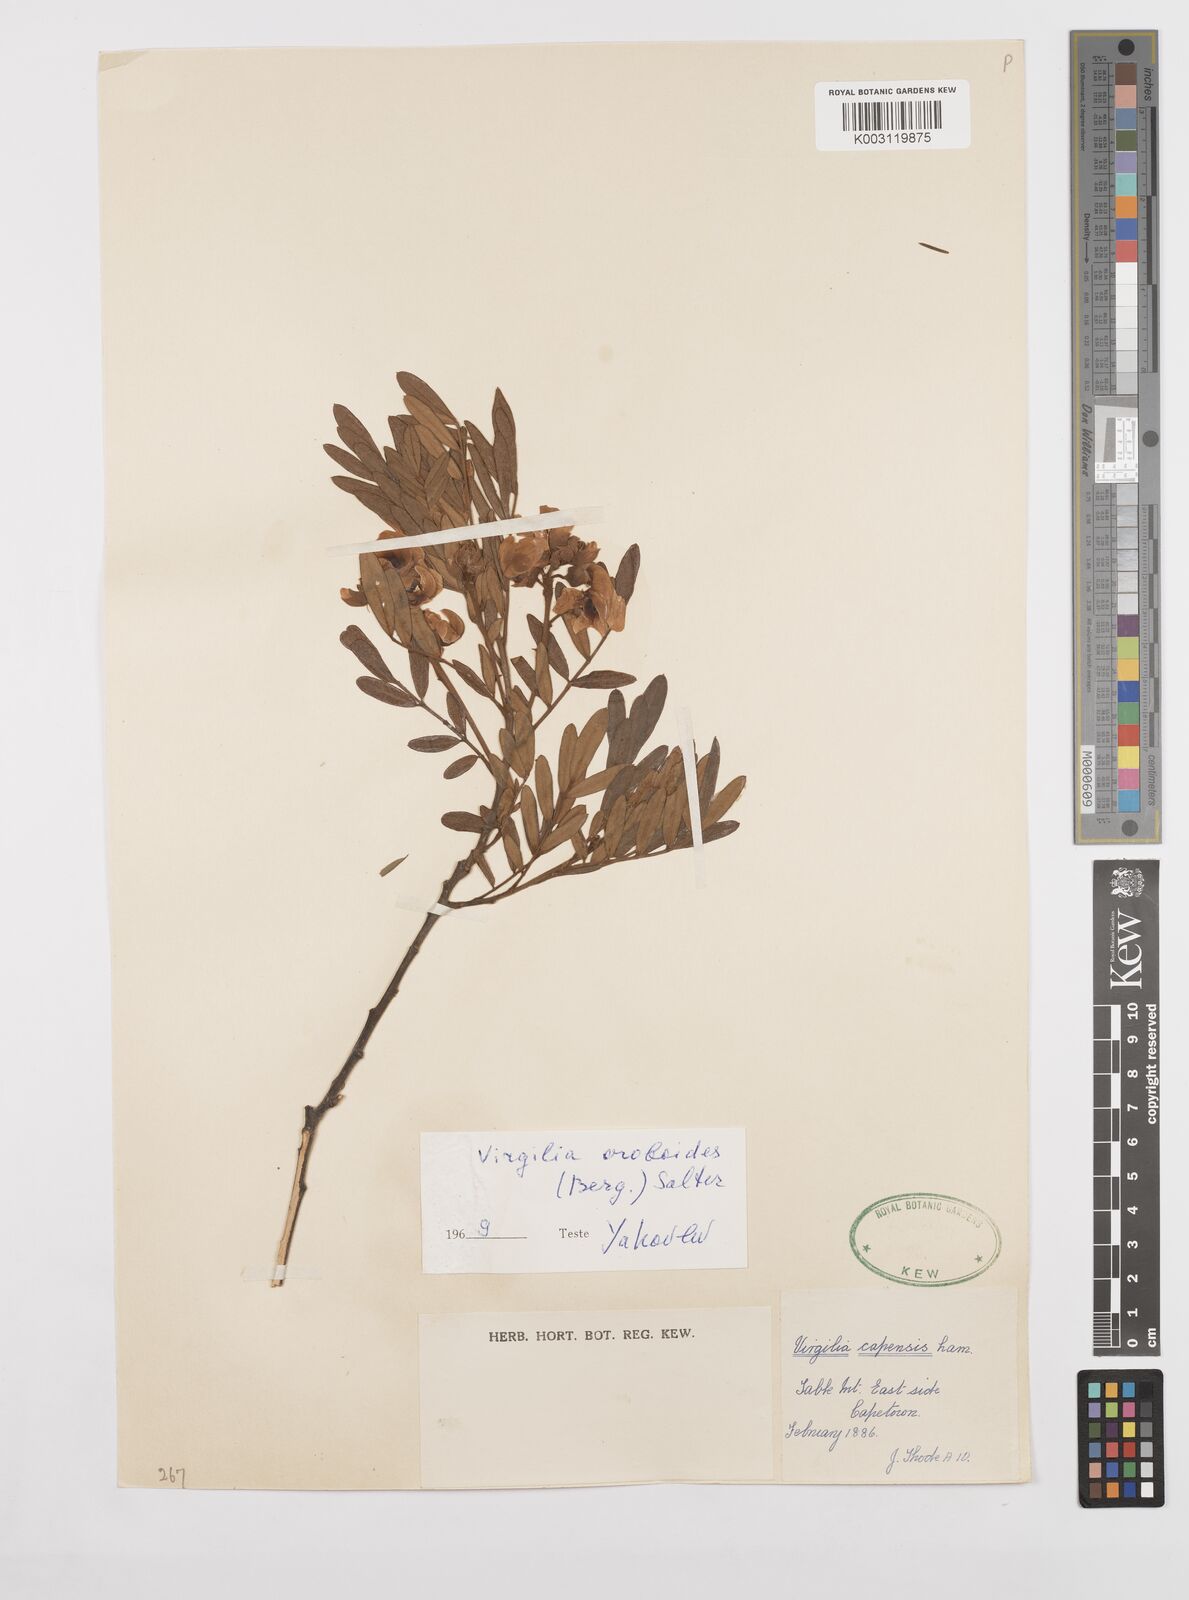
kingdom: Plantae
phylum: Tracheophyta
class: Magnoliopsida
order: Fabales
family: Fabaceae
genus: Virgilia
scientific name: Virgilia oroboides
